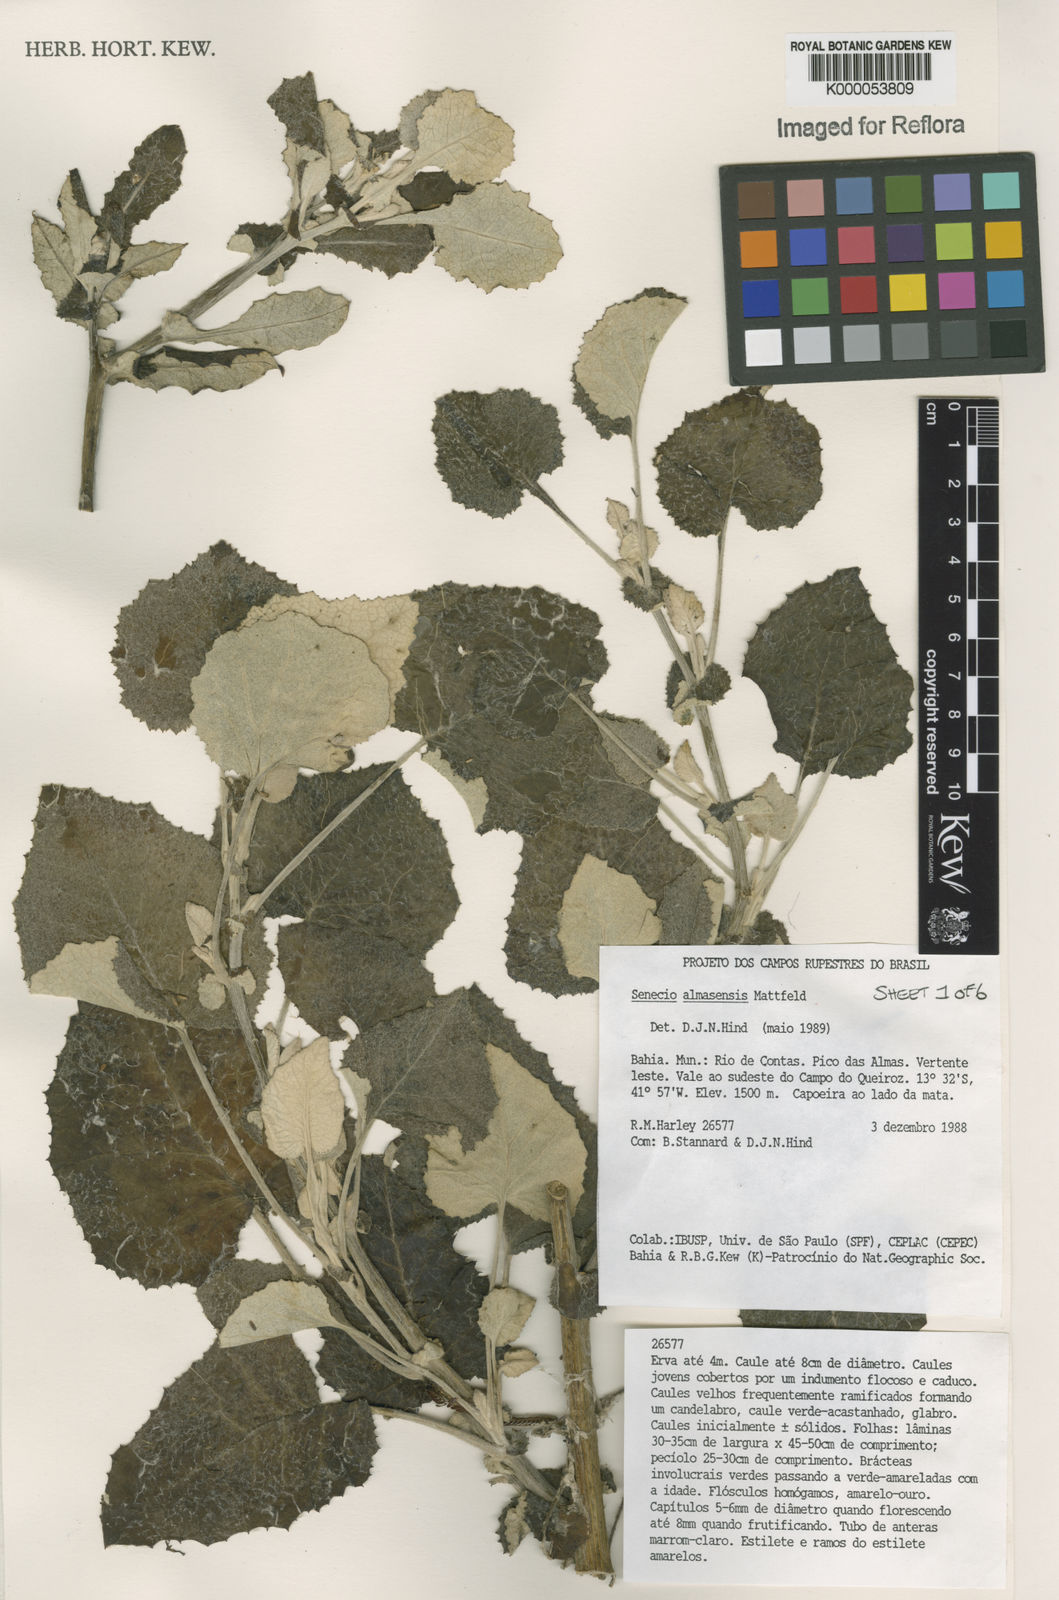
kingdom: Plantae
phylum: Tracheophyta
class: Magnoliopsida
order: Asterales
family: Asteraceae
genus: Senecio
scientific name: Senecio almasensis
